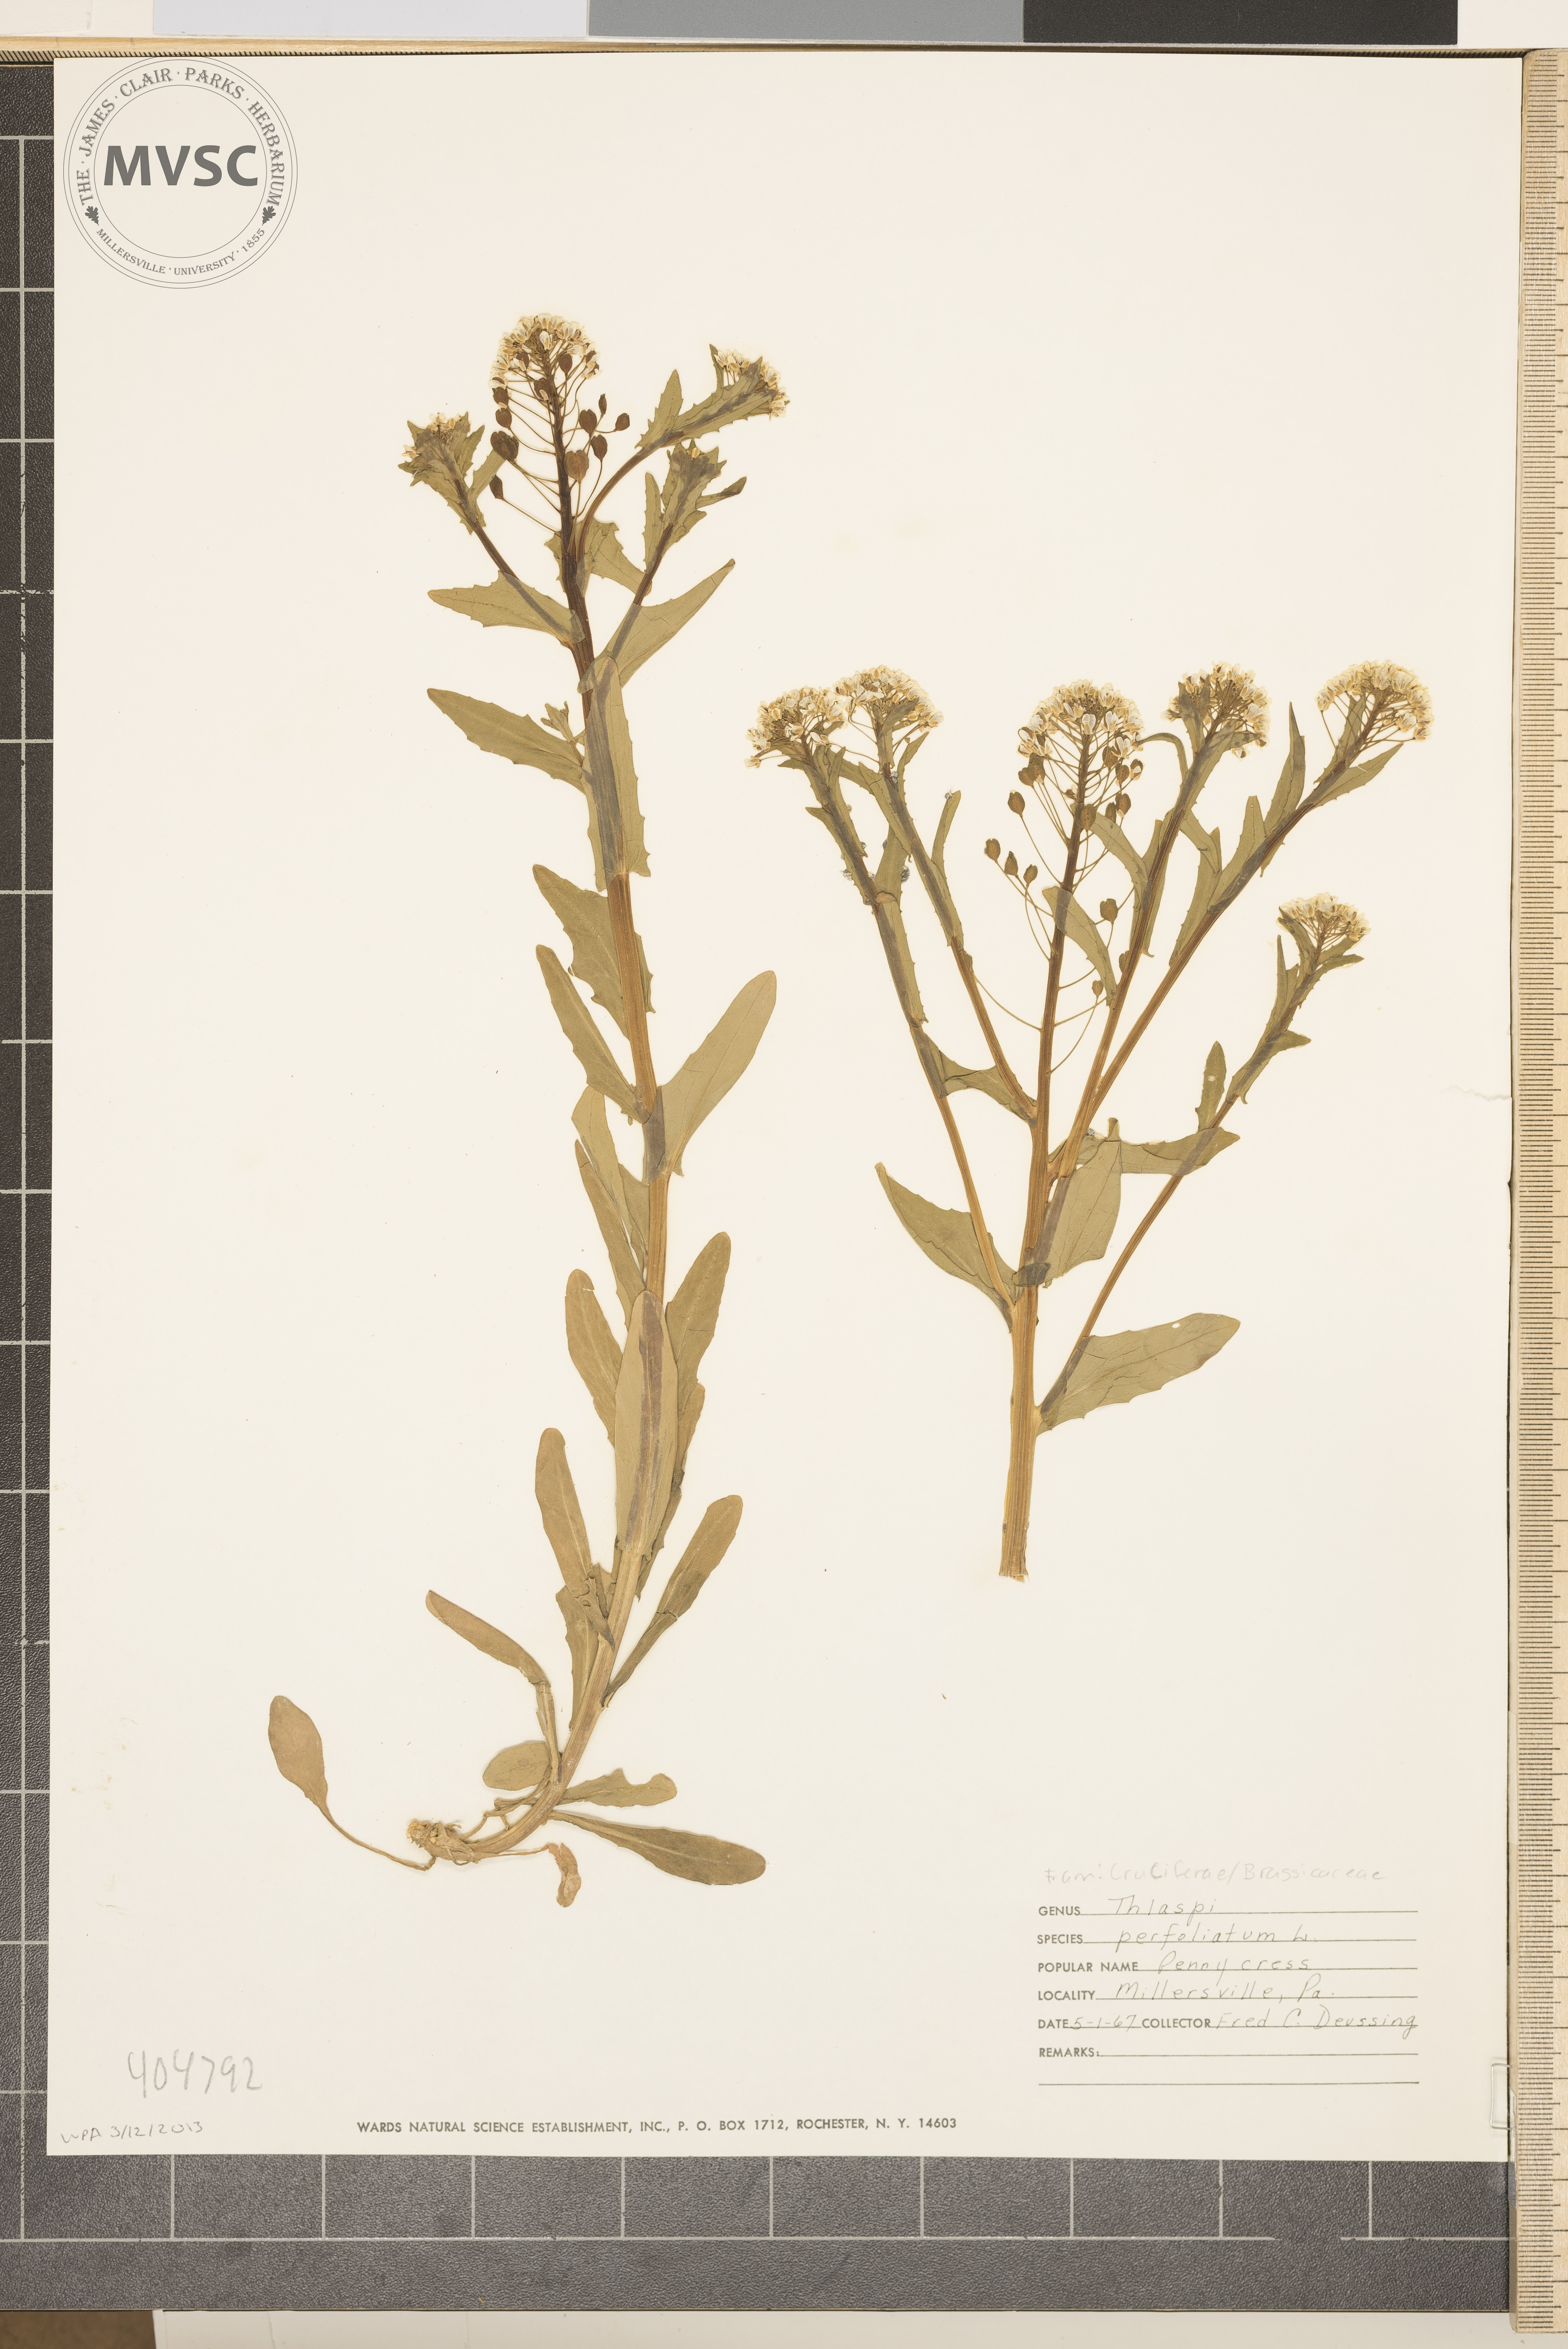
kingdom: Plantae
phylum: Tracheophyta
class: Magnoliopsida
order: Brassicales
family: Brassicaceae
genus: Noccaea
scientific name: Noccaea perfoliata
